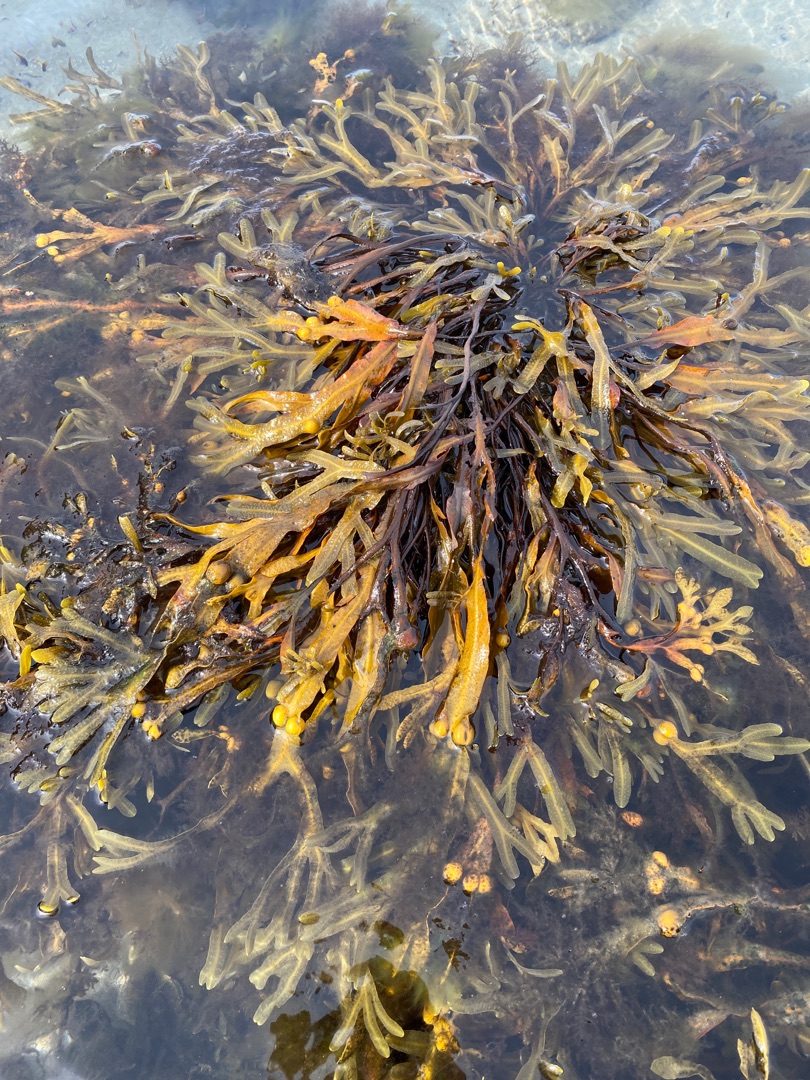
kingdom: Chromista
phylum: Ochrophyta
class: Phaeophyceae
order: Fucales
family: Fucaceae
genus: Fucus
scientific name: Fucus vesiculosus
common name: Blæretang
